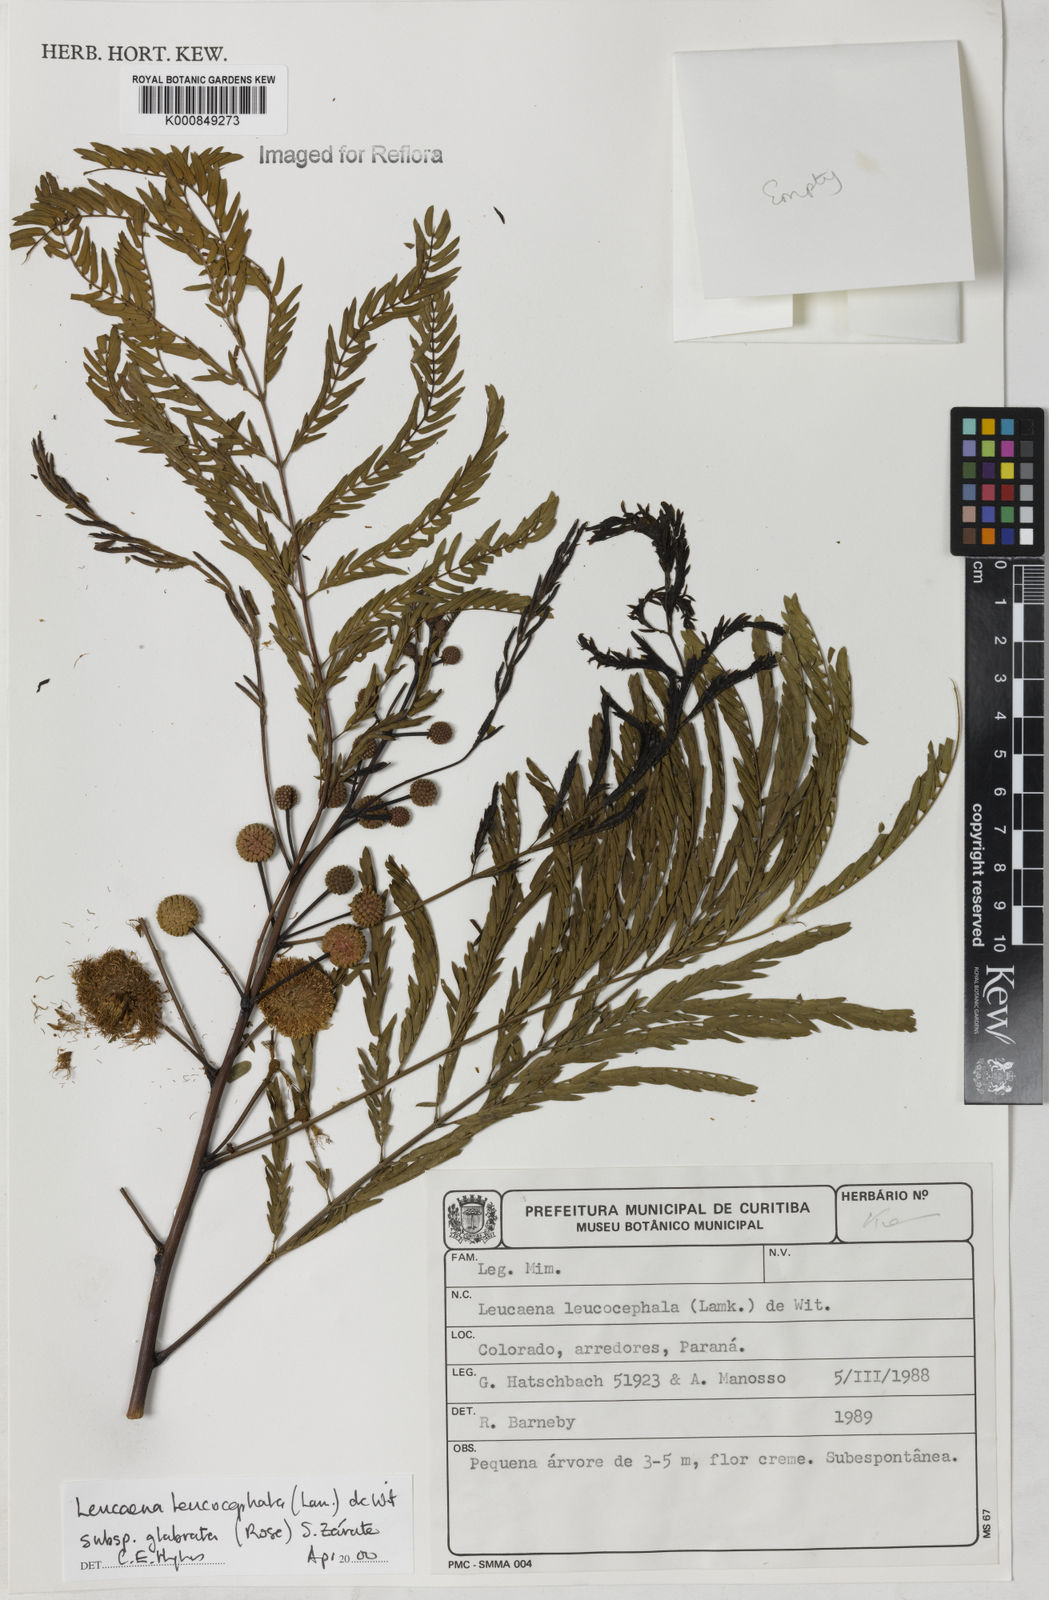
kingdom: Plantae
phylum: Tracheophyta
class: Magnoliopsida
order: Fabales
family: Fabaceae
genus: Leucaena
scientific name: Leucaena leucocephala
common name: White leadtree
